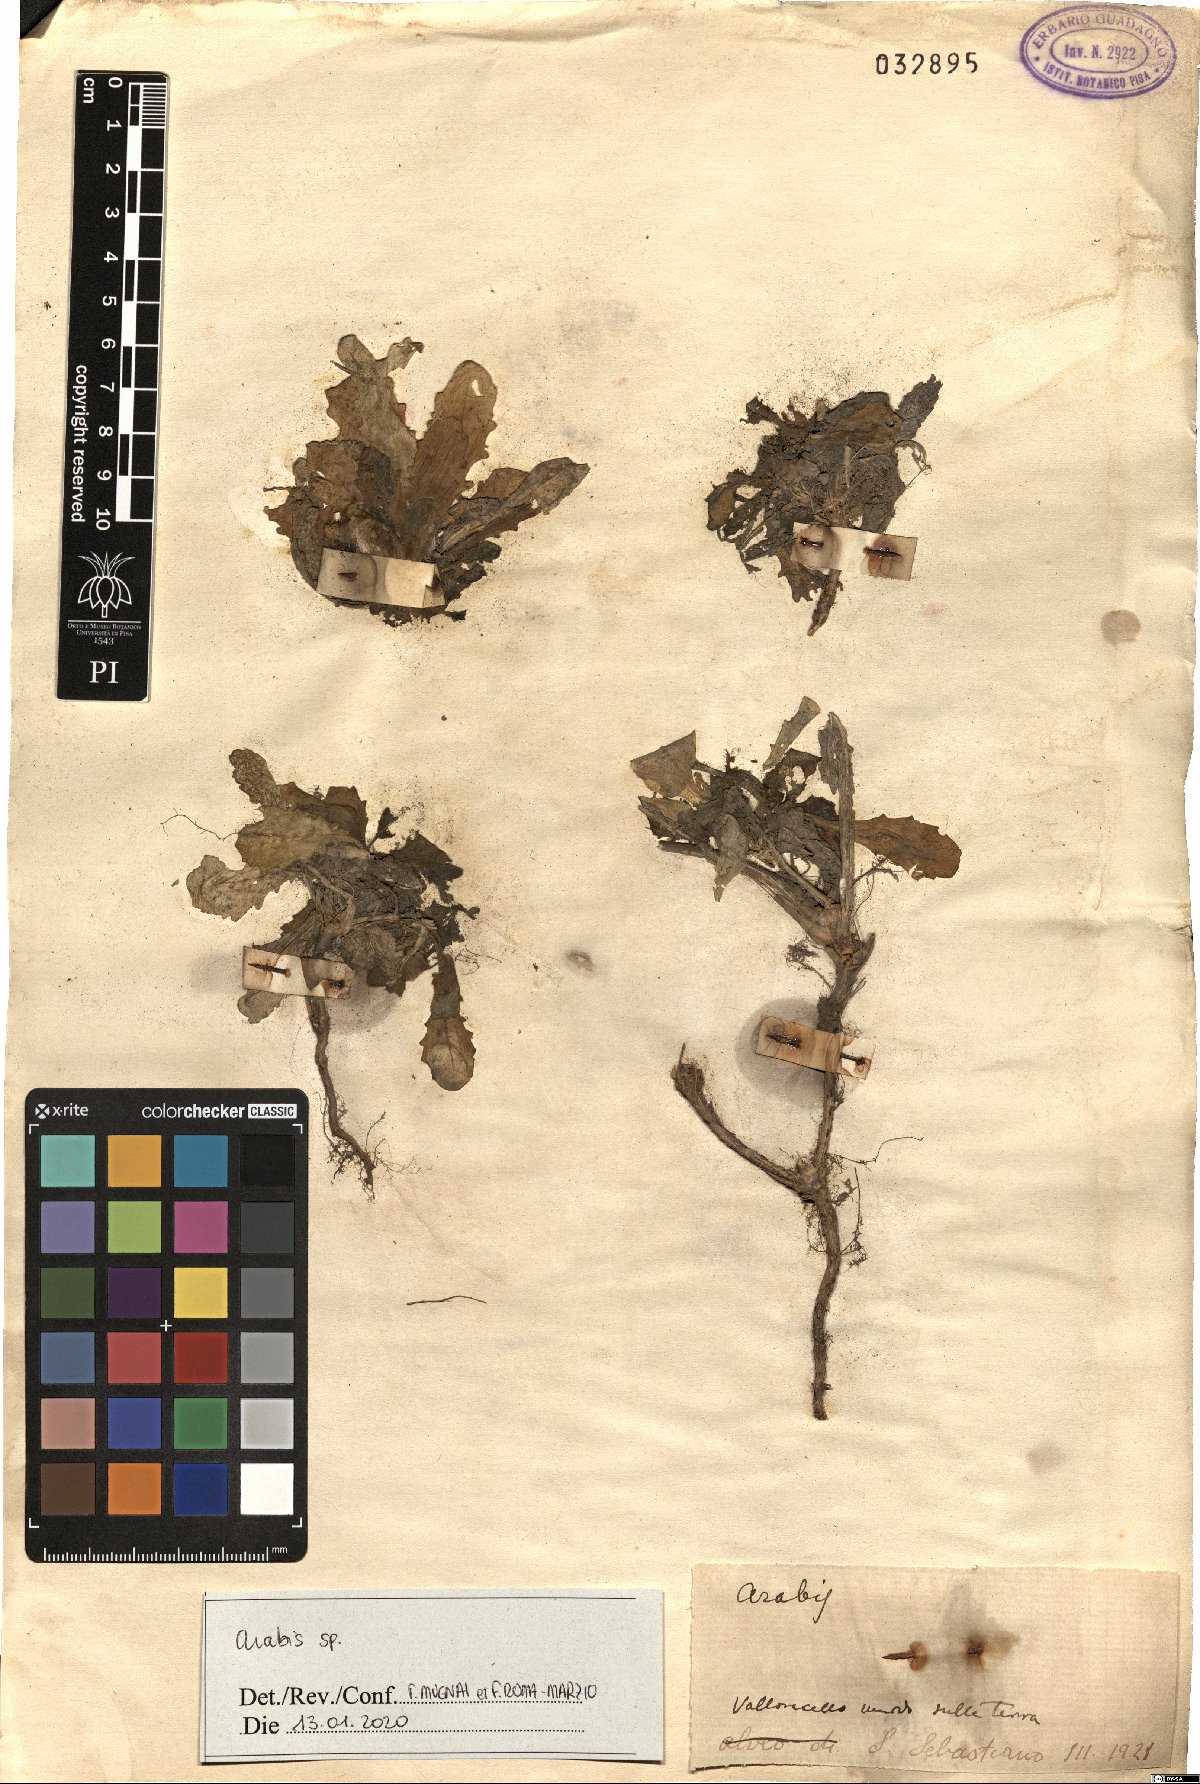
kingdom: Plantae
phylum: Tracheophyta
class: Magnoliopsida
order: Brassicales
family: Brassicaceae
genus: Arabis
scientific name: Arabis
